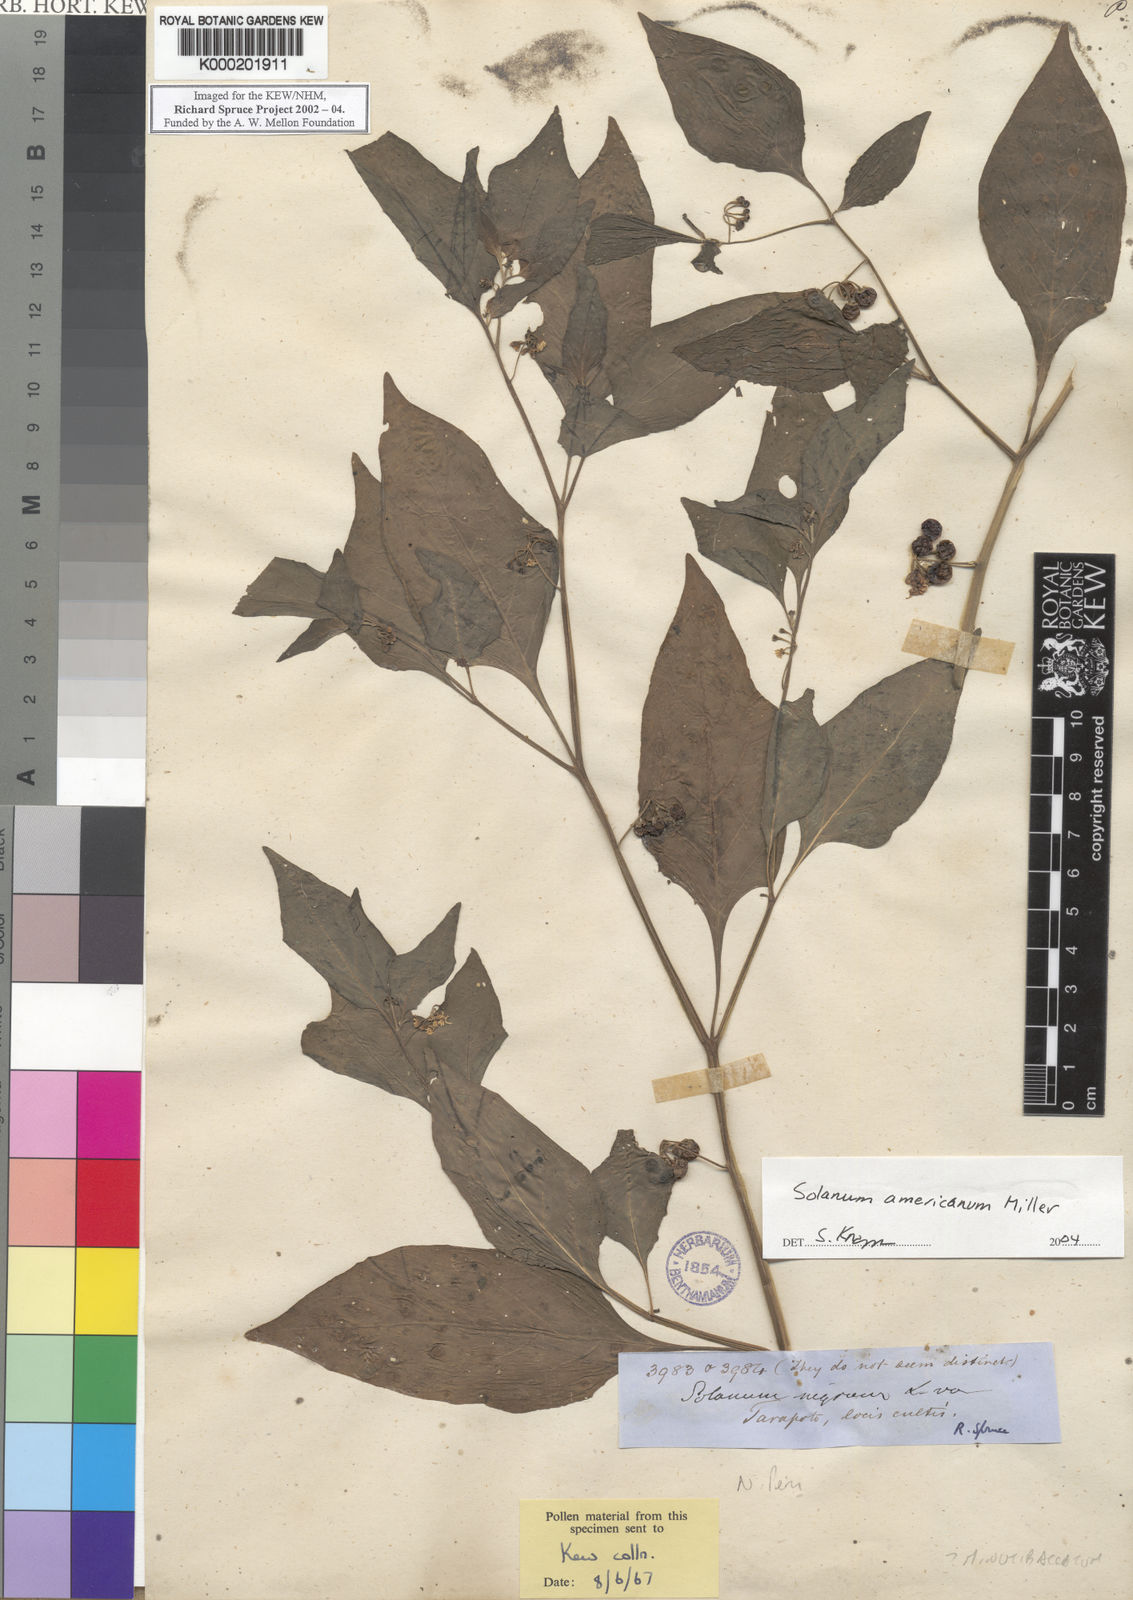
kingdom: Plantae
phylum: Tracheophyta
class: Magnoliopsida
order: Solanales
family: Solanaceae
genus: Solanum
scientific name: Solanum americanum
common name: American black nightshade
